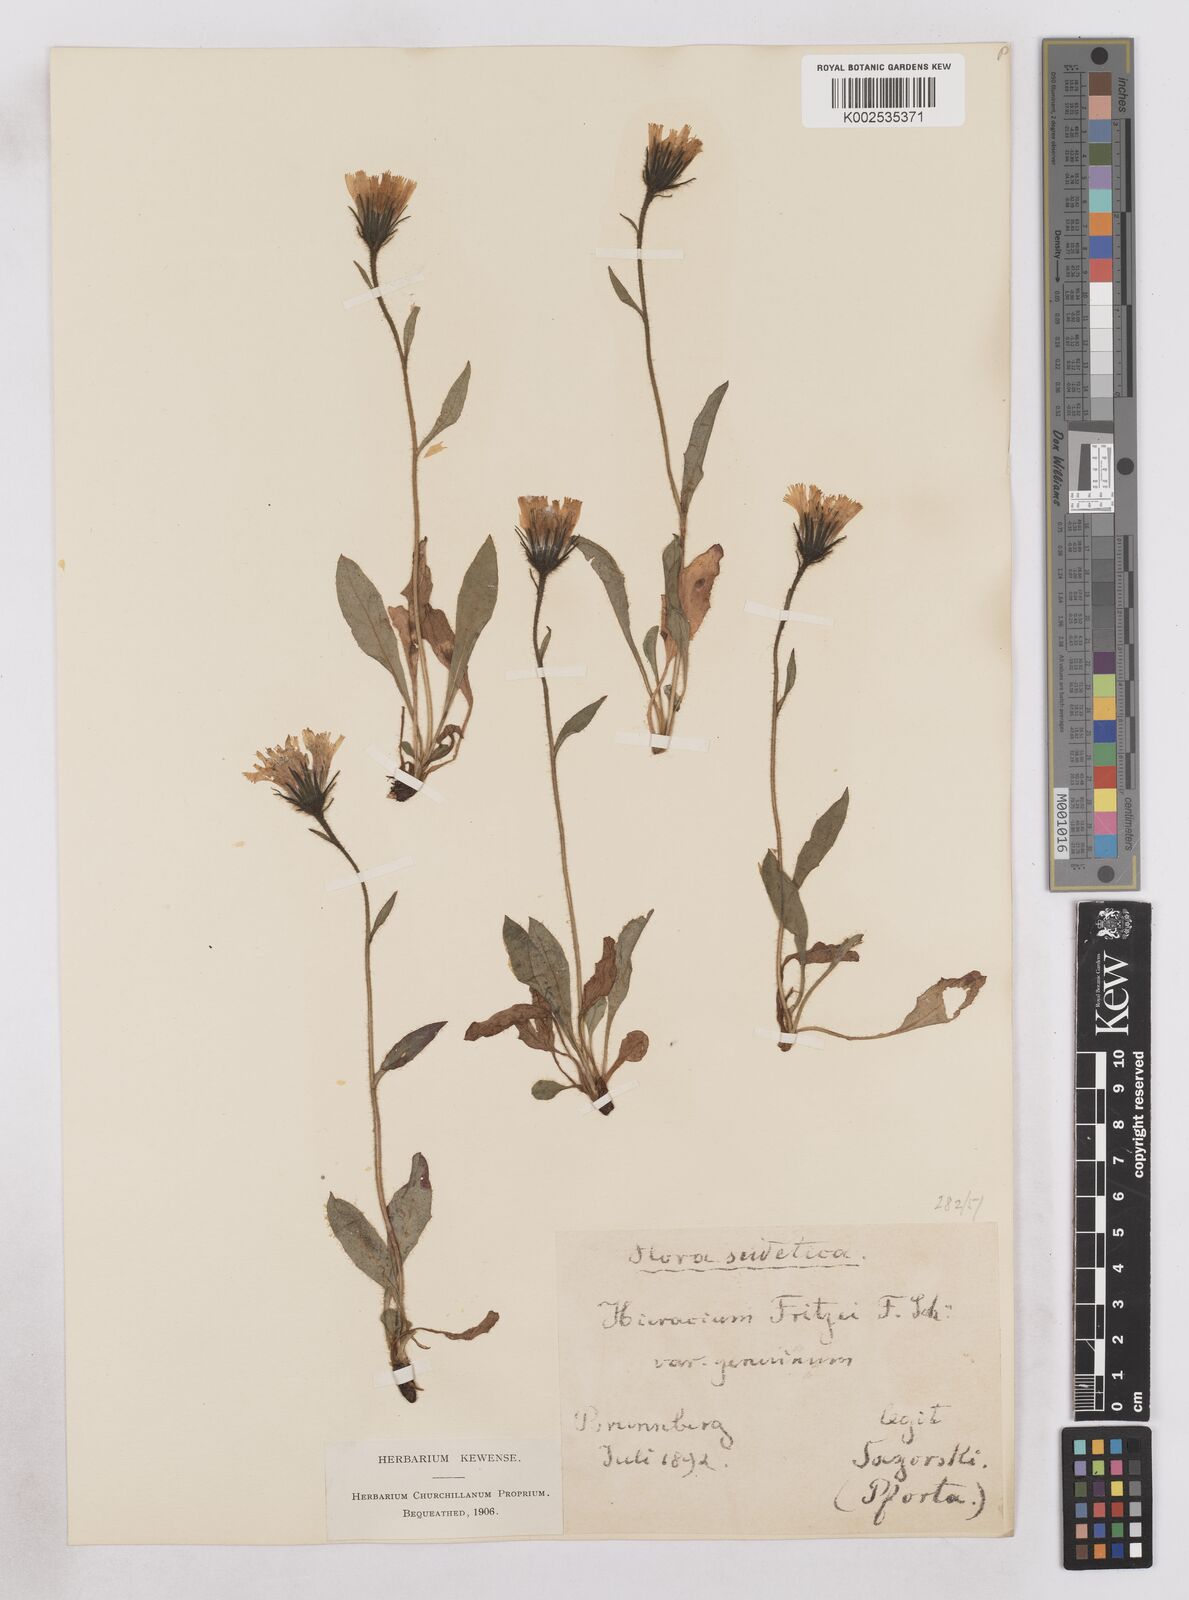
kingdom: Plantae
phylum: Tracheophyta
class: Magnoliopsida
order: Asterales
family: Asteraceae
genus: Hieracium
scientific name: Hieracium fritzei
